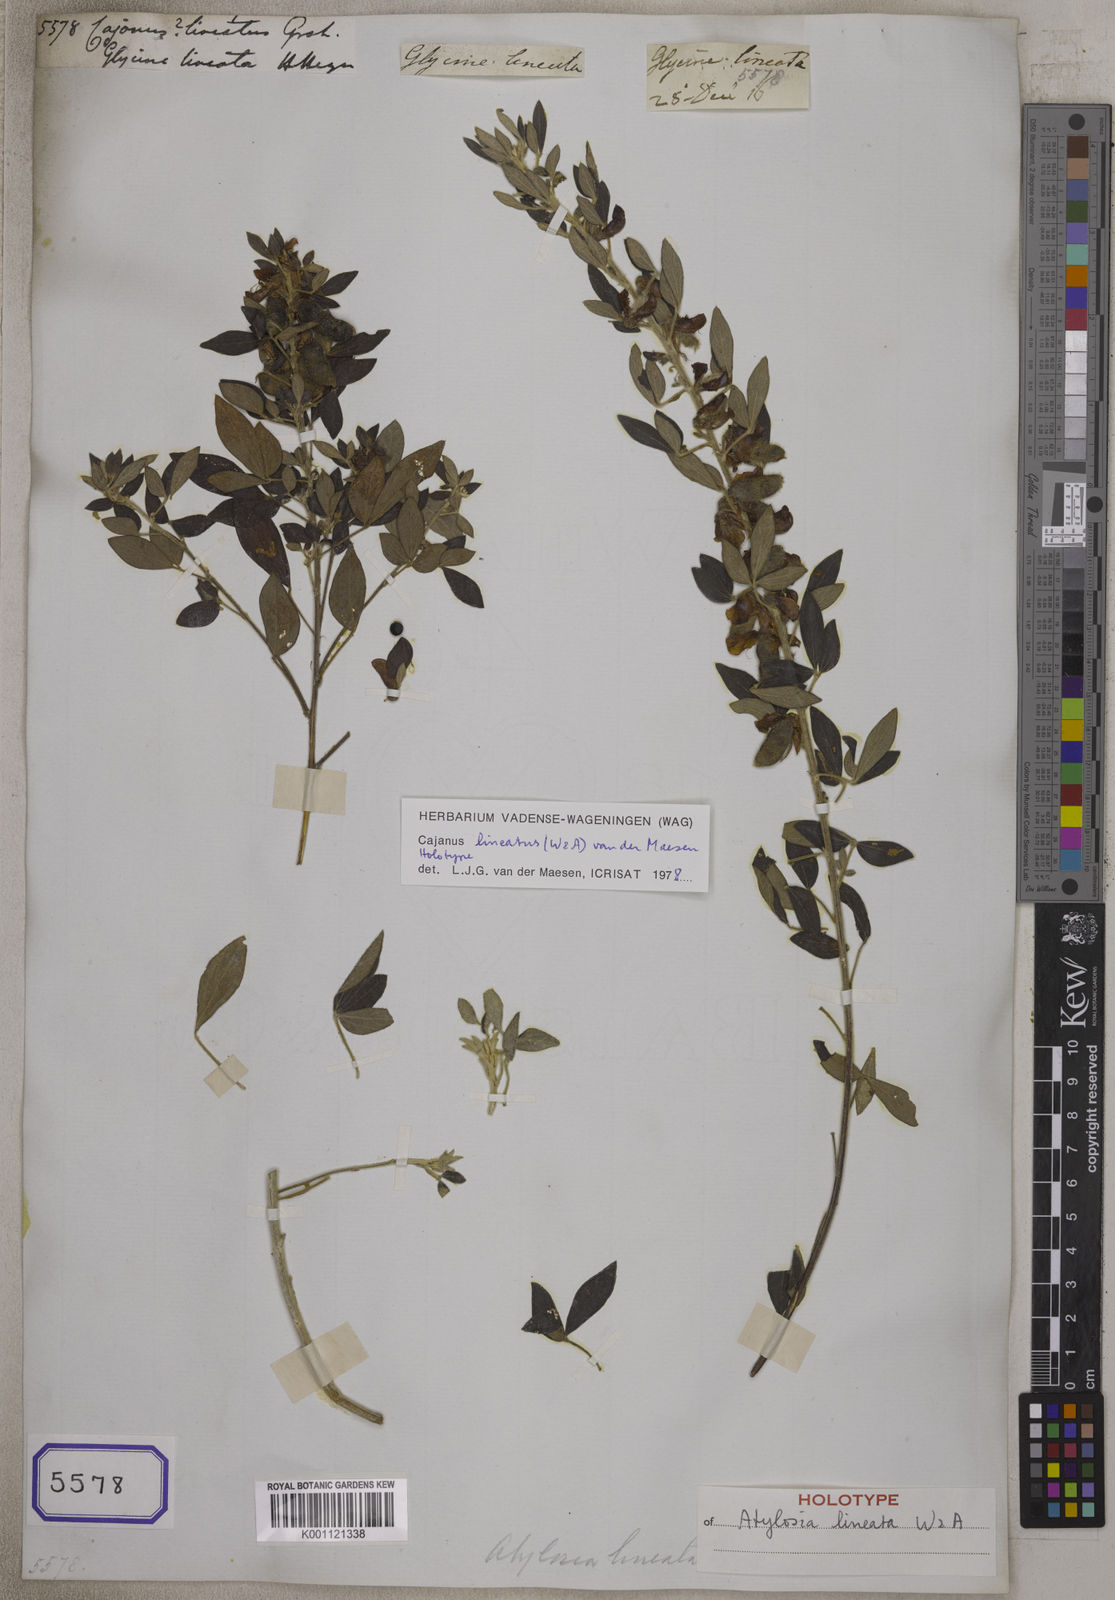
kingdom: Plantae
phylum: Tracheophyta
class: Magnoliopsida
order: Fabales
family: Fabaceae
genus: Cajanus
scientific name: Cajanus
